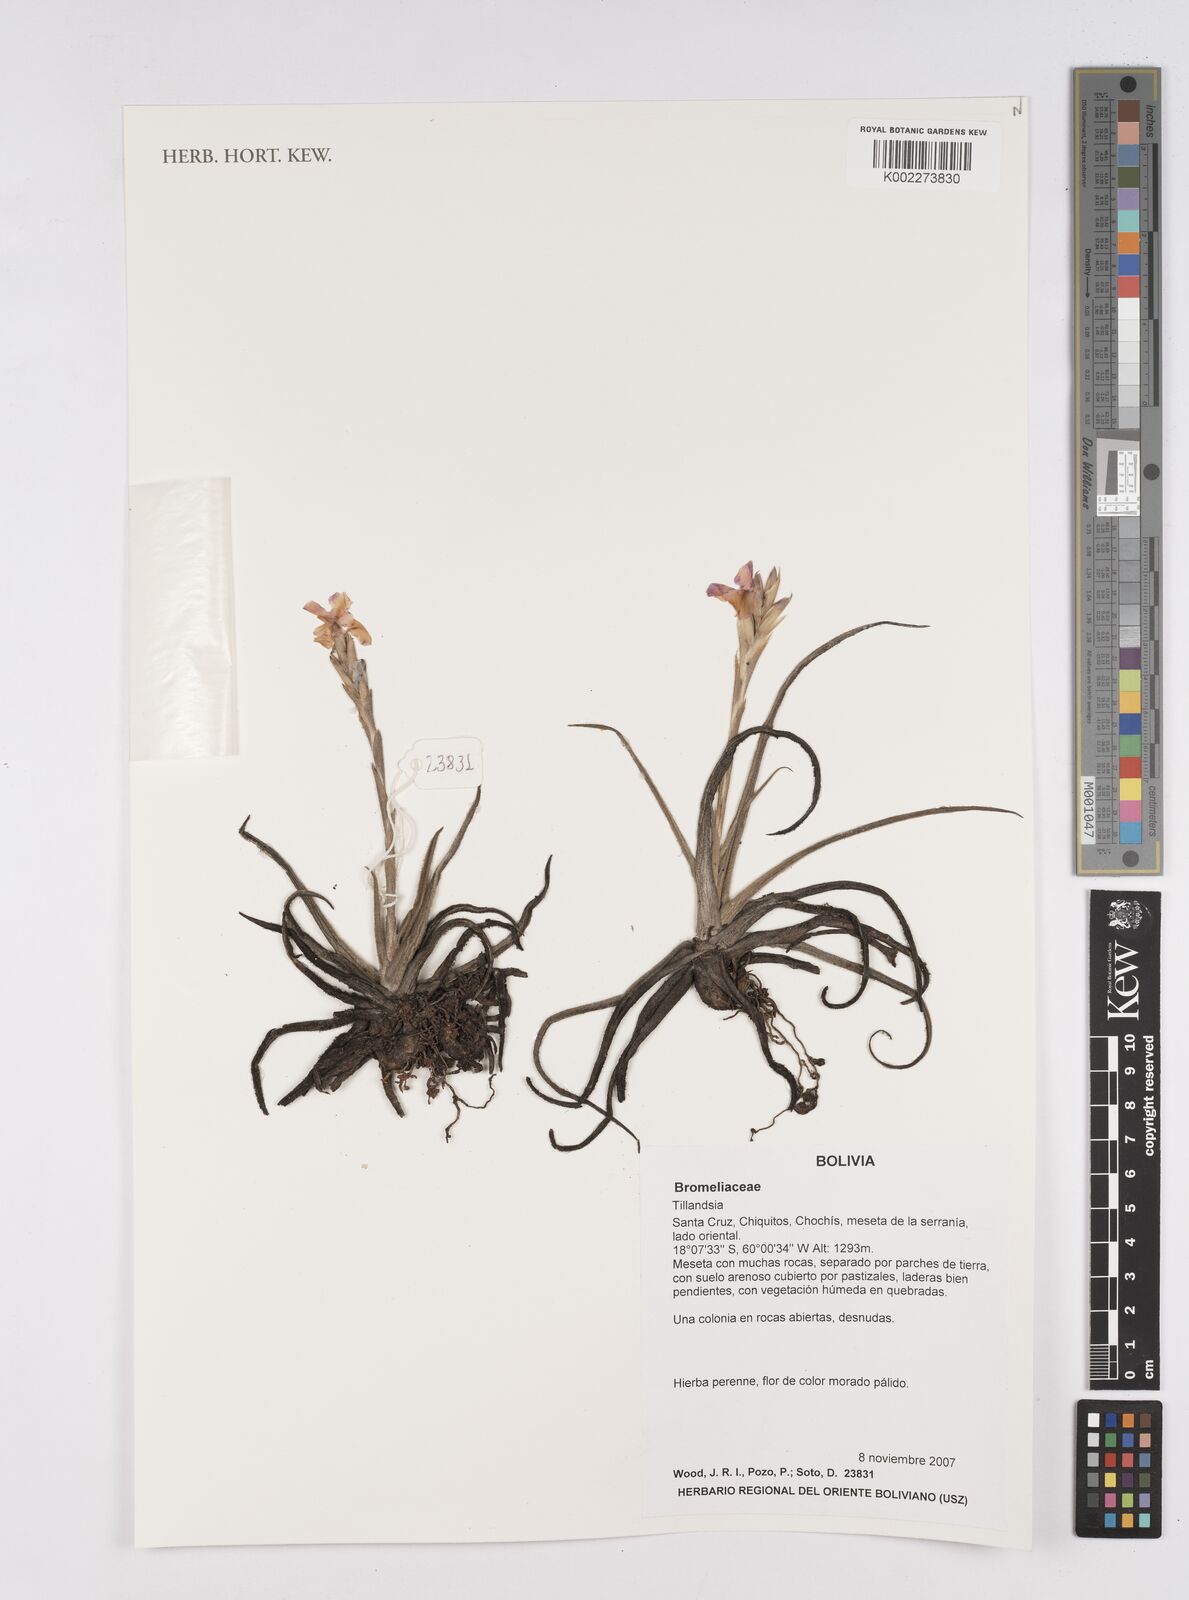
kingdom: Plantae
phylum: Tracheophyta
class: Liliopsida
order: Poales
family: Bromeliaceae
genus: Tillandsia
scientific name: Tillandsia
